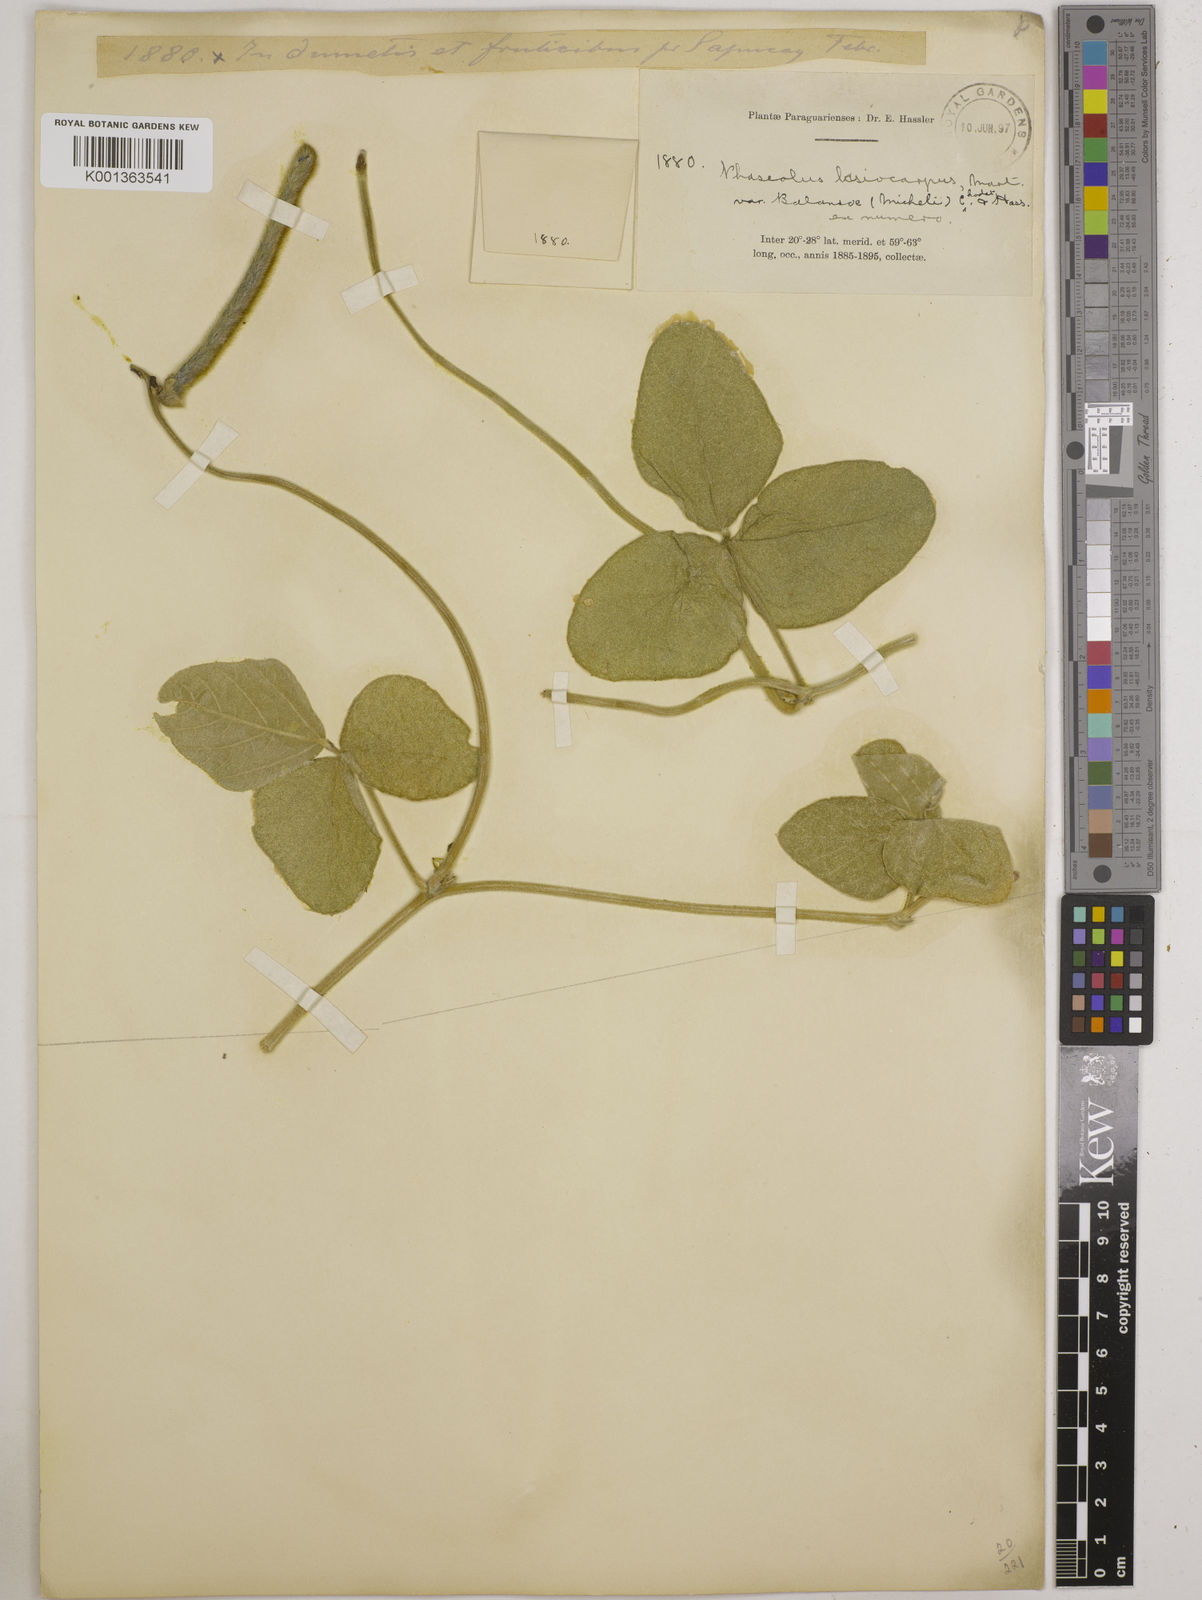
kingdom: Plantae
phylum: Tracheophyta
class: Magnoliopsida
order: Fabales
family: Fabaceae
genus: Vigna
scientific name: Vigna lasiocarpa
